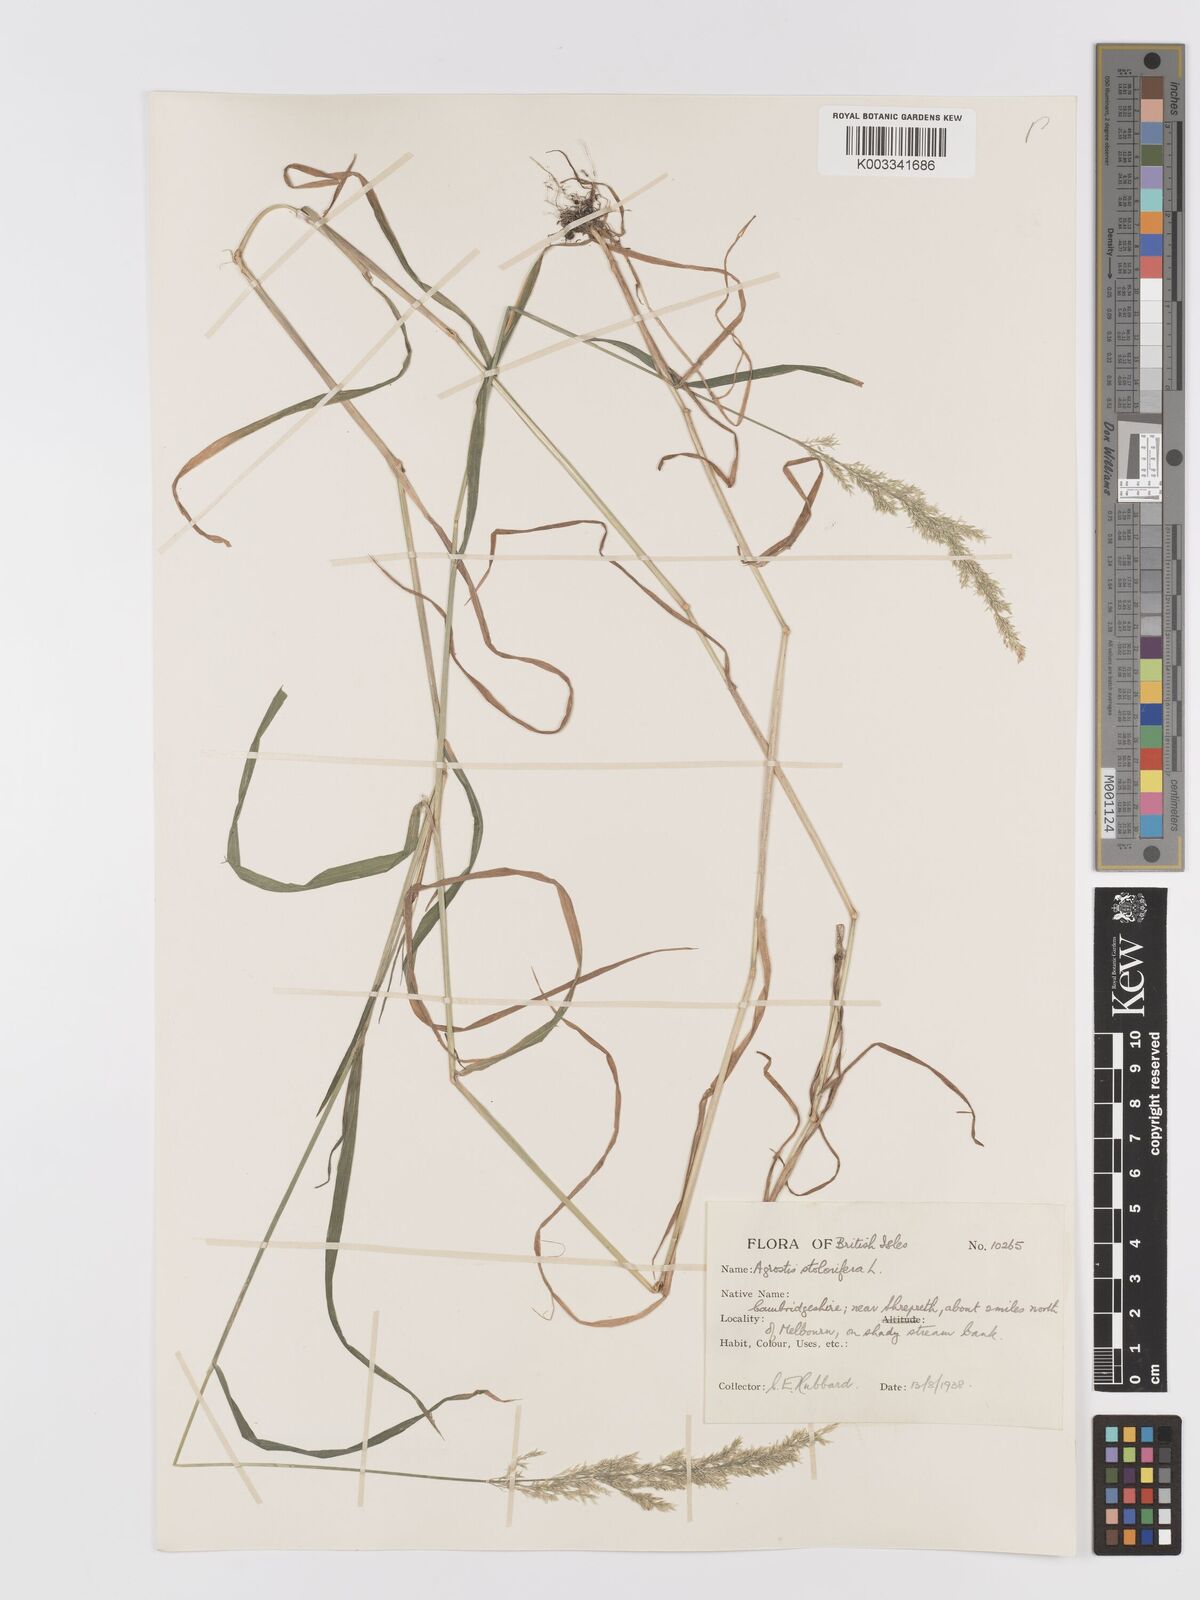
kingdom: Plantae
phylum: Tracheophyta
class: Liliopsida
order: Poales
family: Poaceae
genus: Agrostis
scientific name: Agrostis stolonifera
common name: Creeping bentgrass
